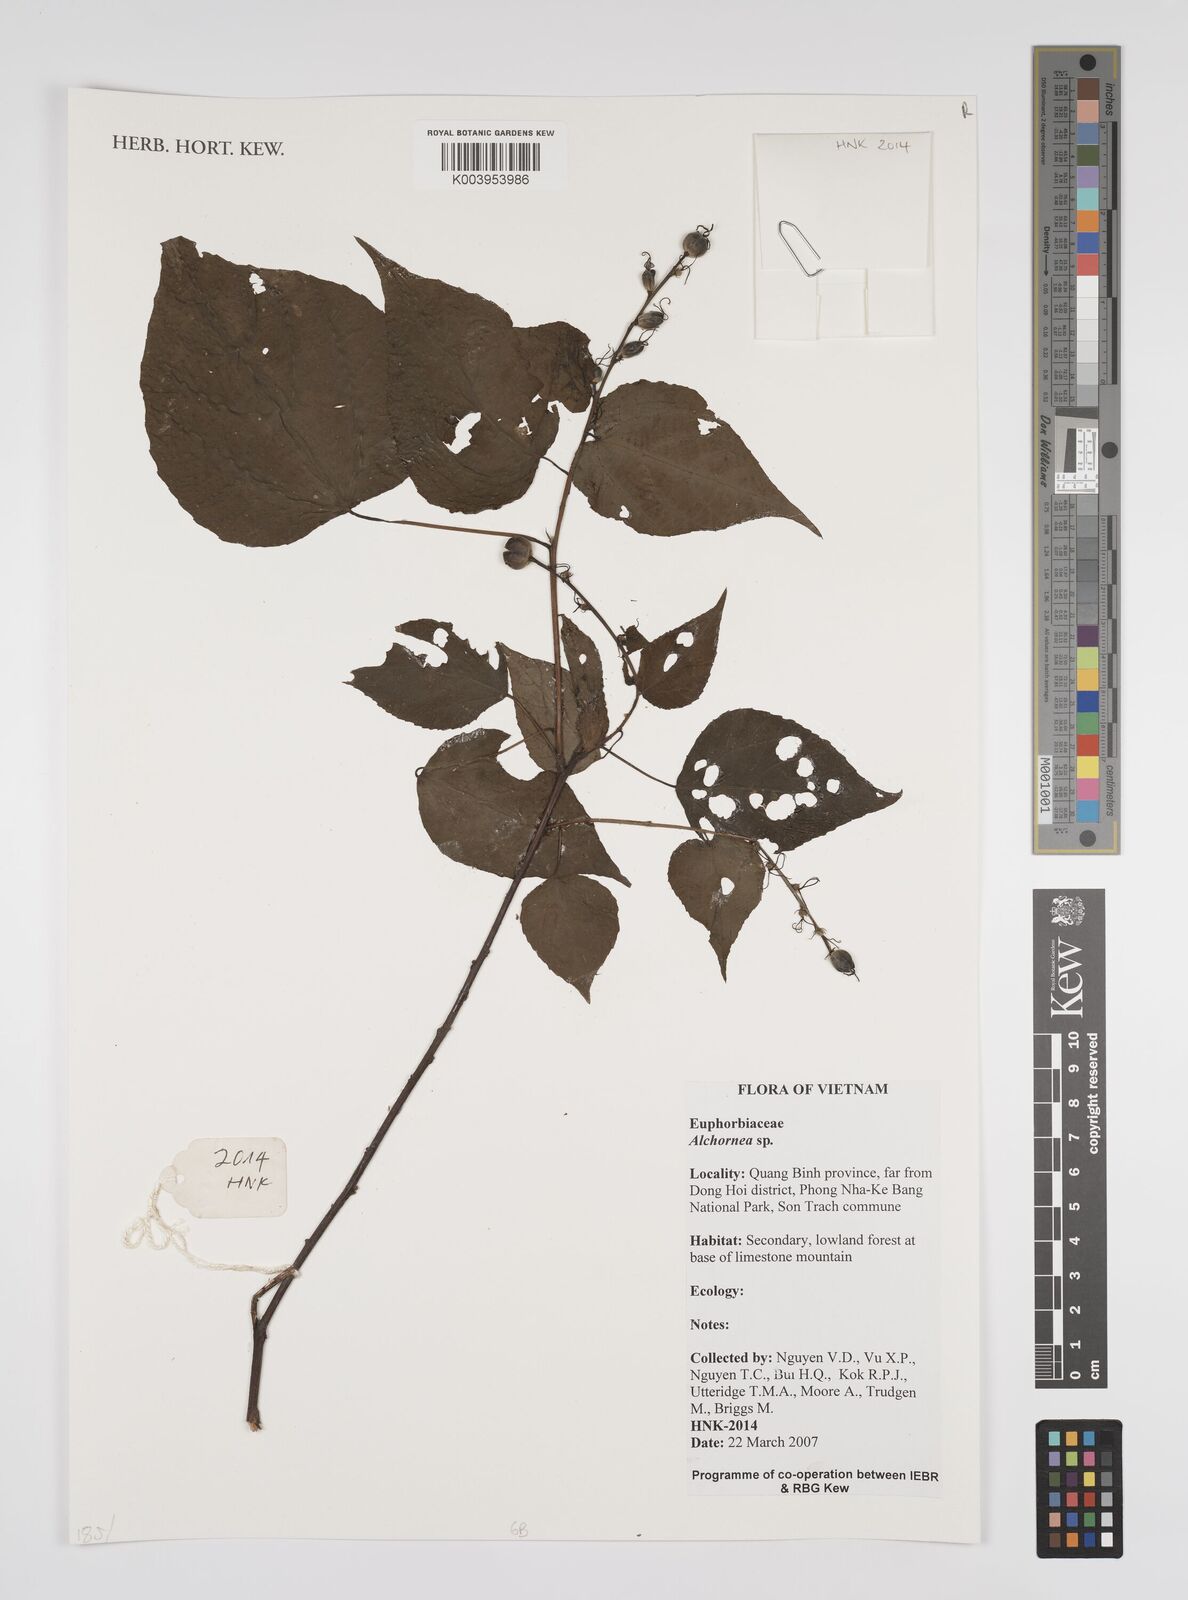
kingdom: Plantae
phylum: Tracheophyta
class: Magnoliopsida
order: Malpighiales
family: Euphorbiaceae
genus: Alchornea
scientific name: Alchornea
